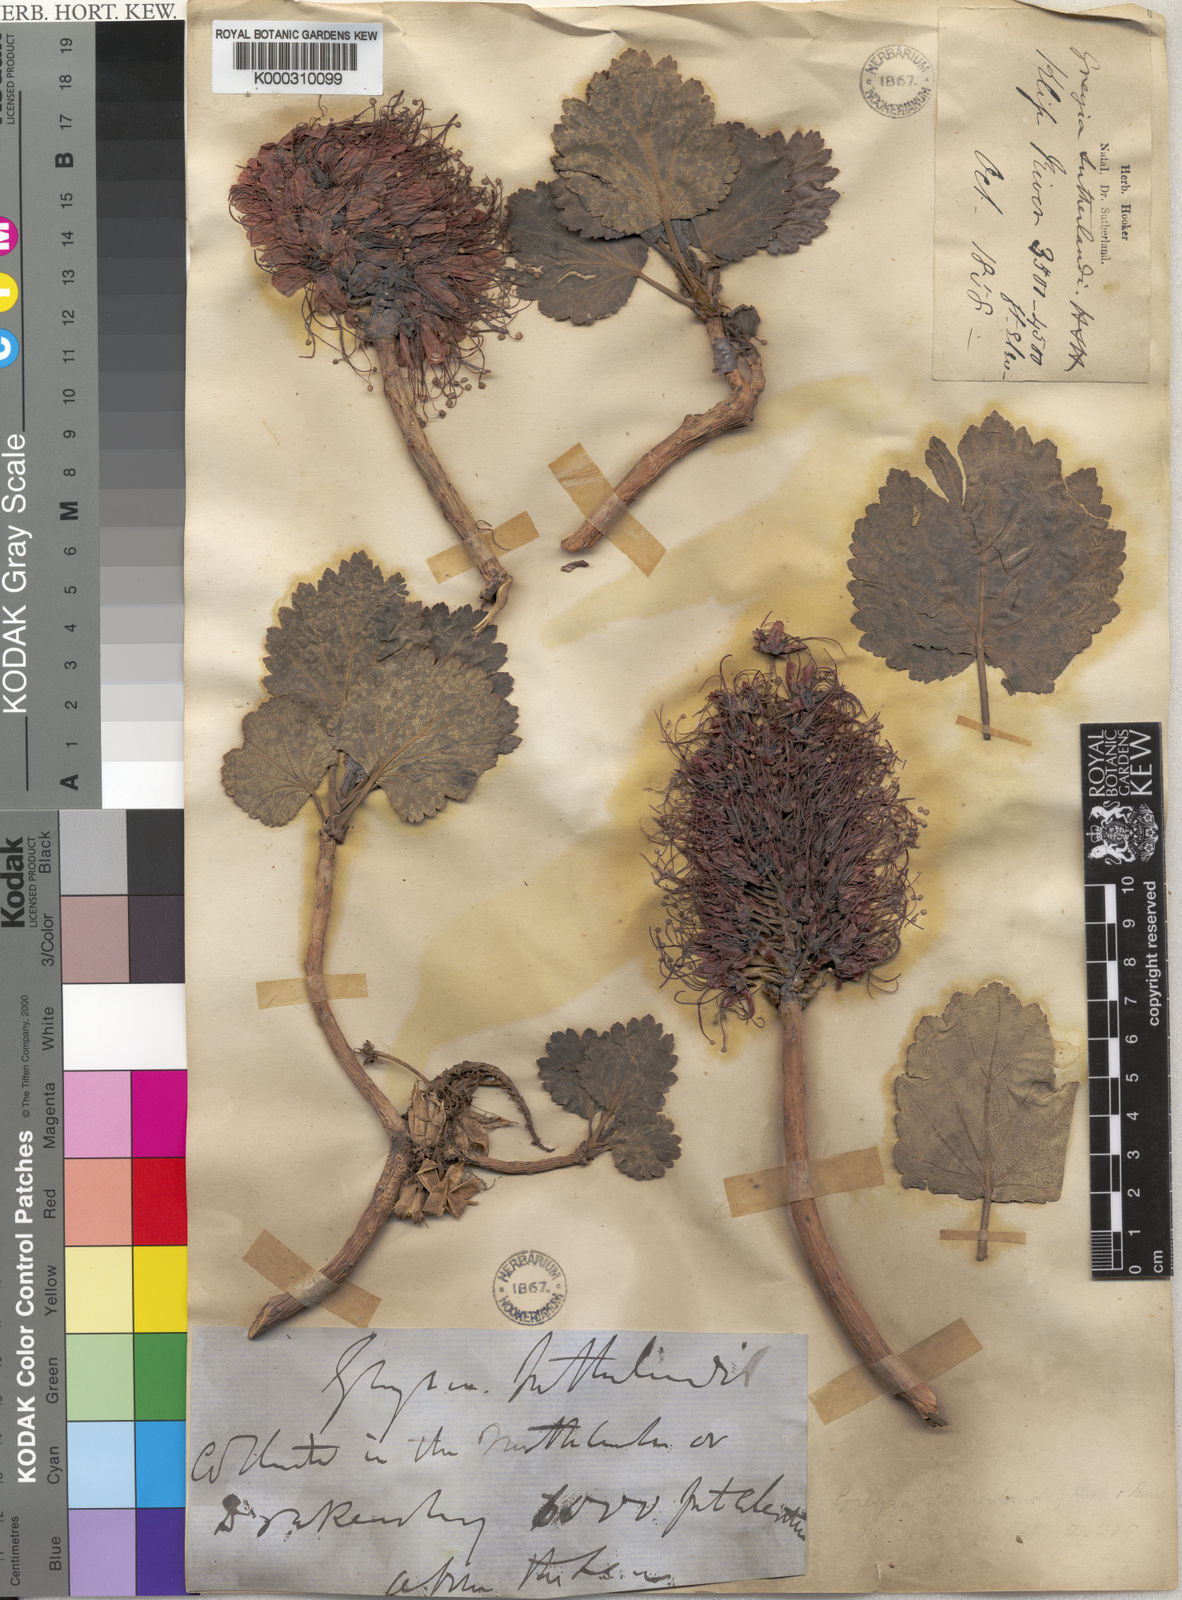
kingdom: Plantae
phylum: Tracheophyta
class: Magnoliopsida
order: Geraniales
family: Francoaceae
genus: Greyia
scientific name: Greyia sutherlandii
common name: Glossy bottlebrush
